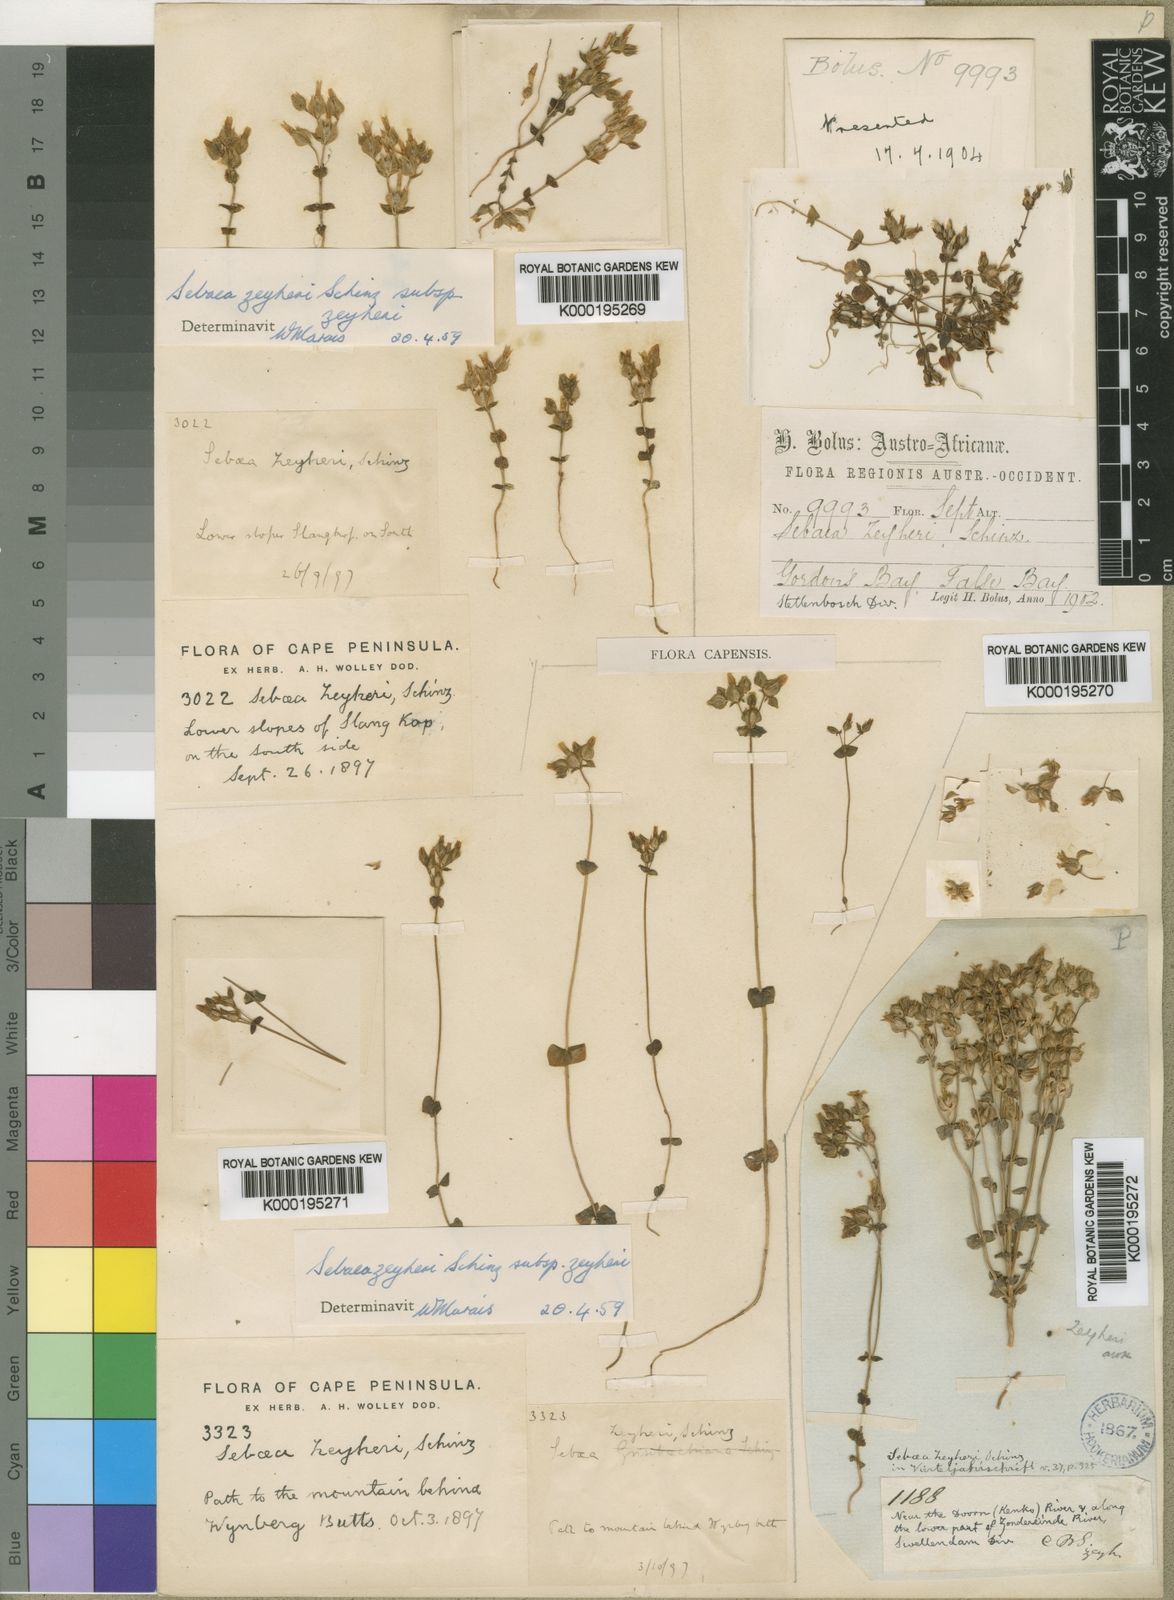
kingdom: Plantae
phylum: Tracheophyta
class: Magnoliopsida
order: Gentianales
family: Gentianaceae
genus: Sebaea
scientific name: Sebaea scabra
